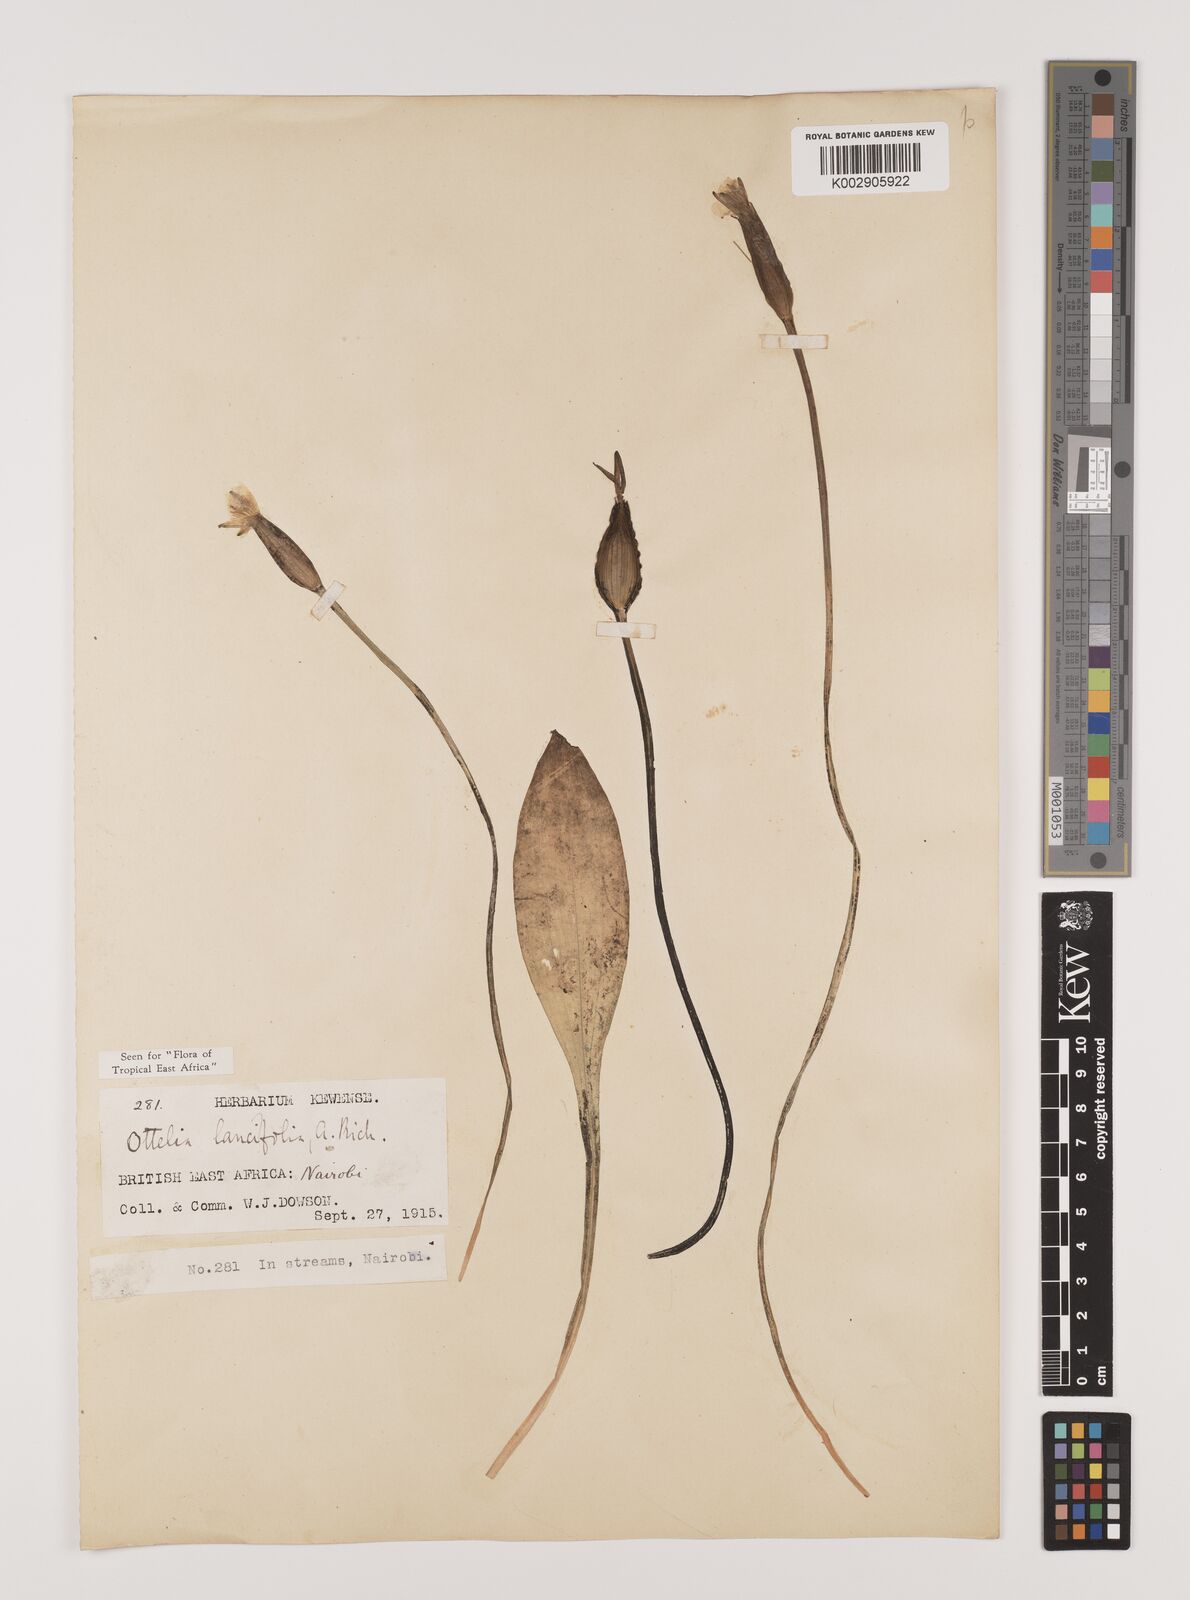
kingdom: Plantae
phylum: Tracheophyta
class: Liliopsida
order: Alismatales
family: Hydrocharitaceae
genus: Ottelia
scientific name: Ottelia ulvifolia
